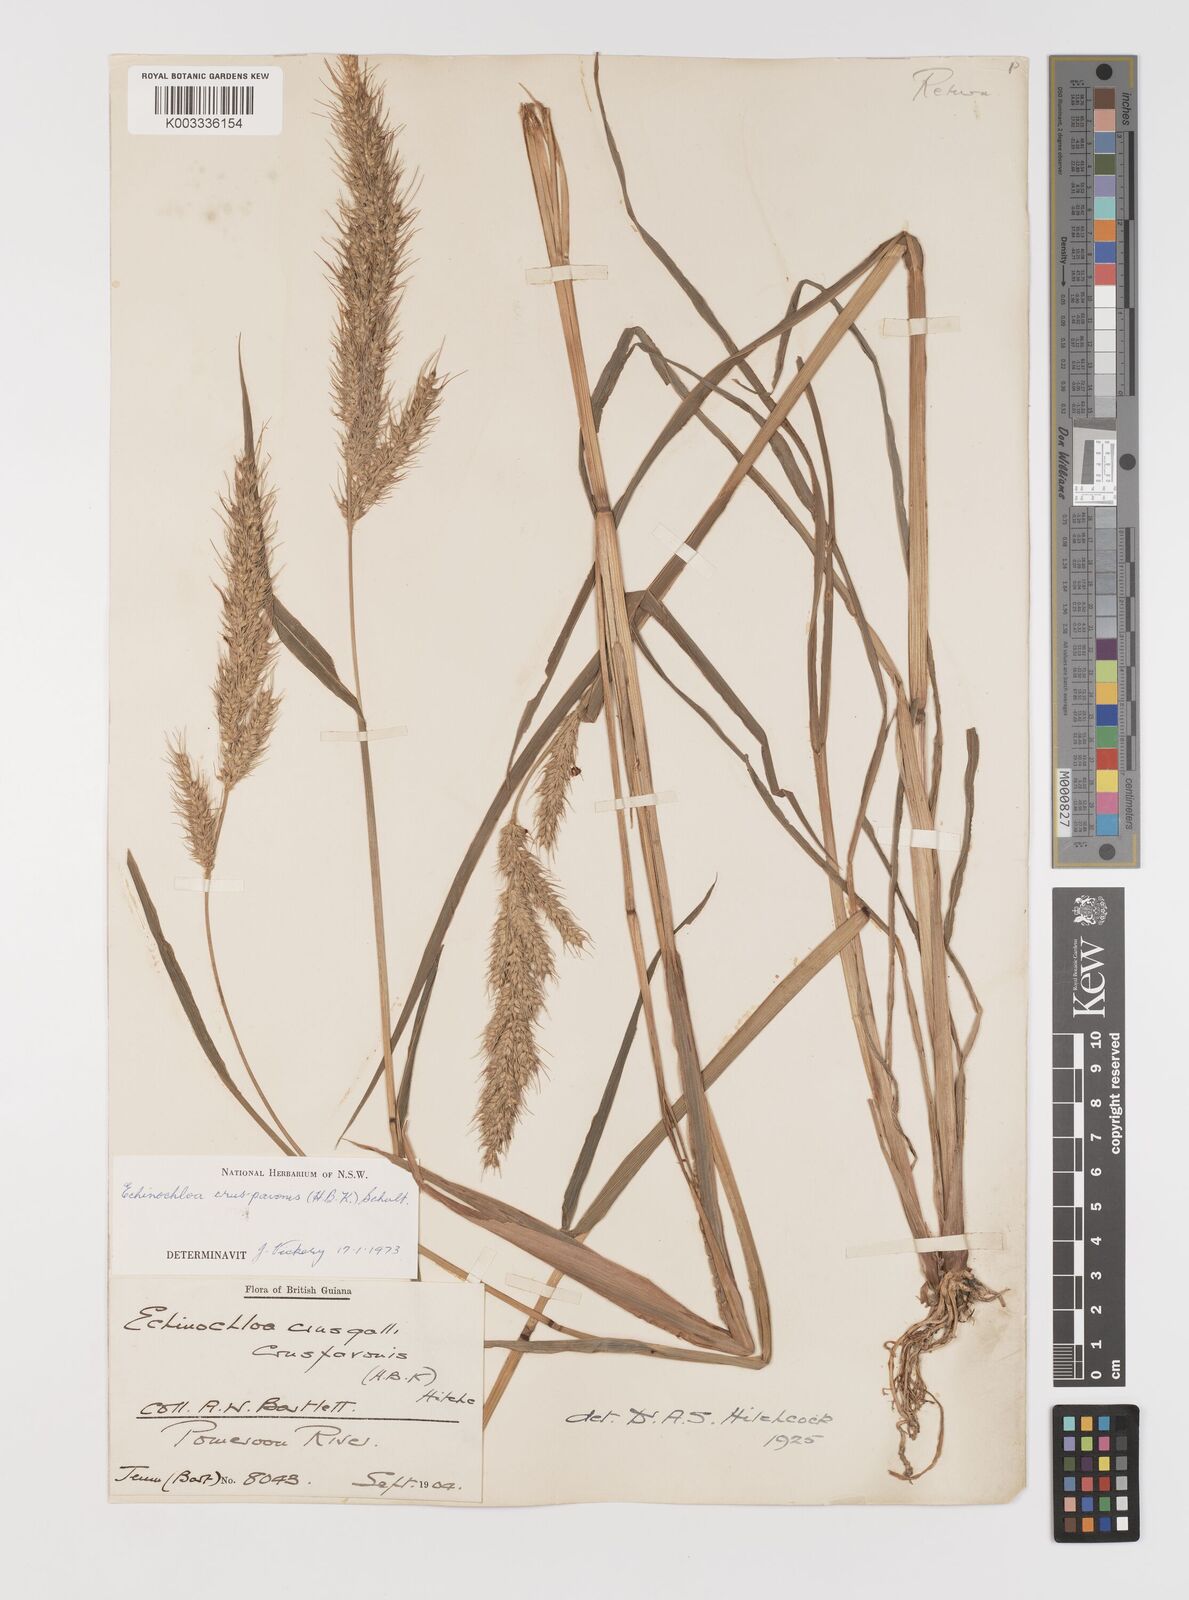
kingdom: Plantae
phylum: Tracheophyta
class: Liliopsida
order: Poales
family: Poaceae
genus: Echinochloa
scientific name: Echinochloa crus-pavonis
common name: Gulf cockspur grass
